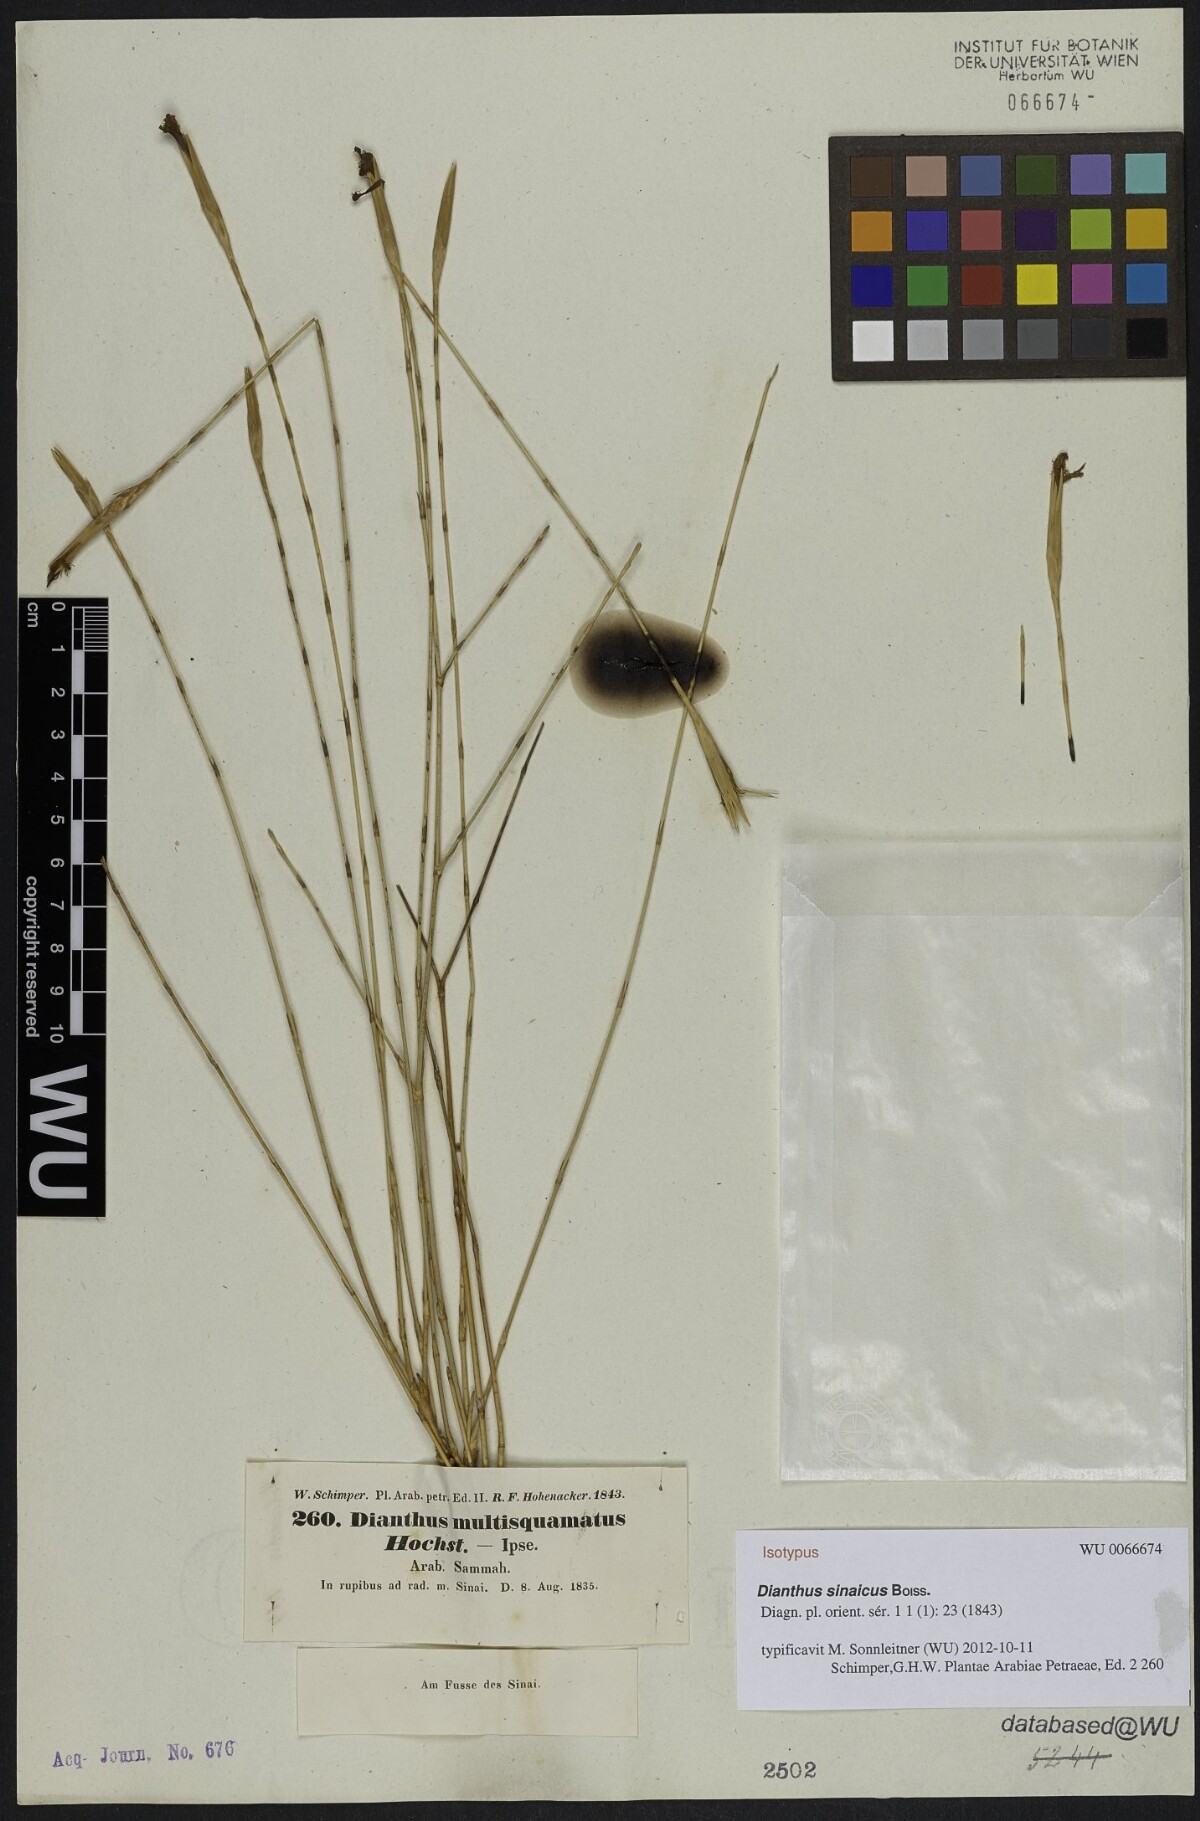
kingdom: Plantae
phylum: Tracheophyta
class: Magnoliopsida
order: Caryophyllales
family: Caryophyllaceae
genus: Dianthus
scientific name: Dianthus sinaicus
